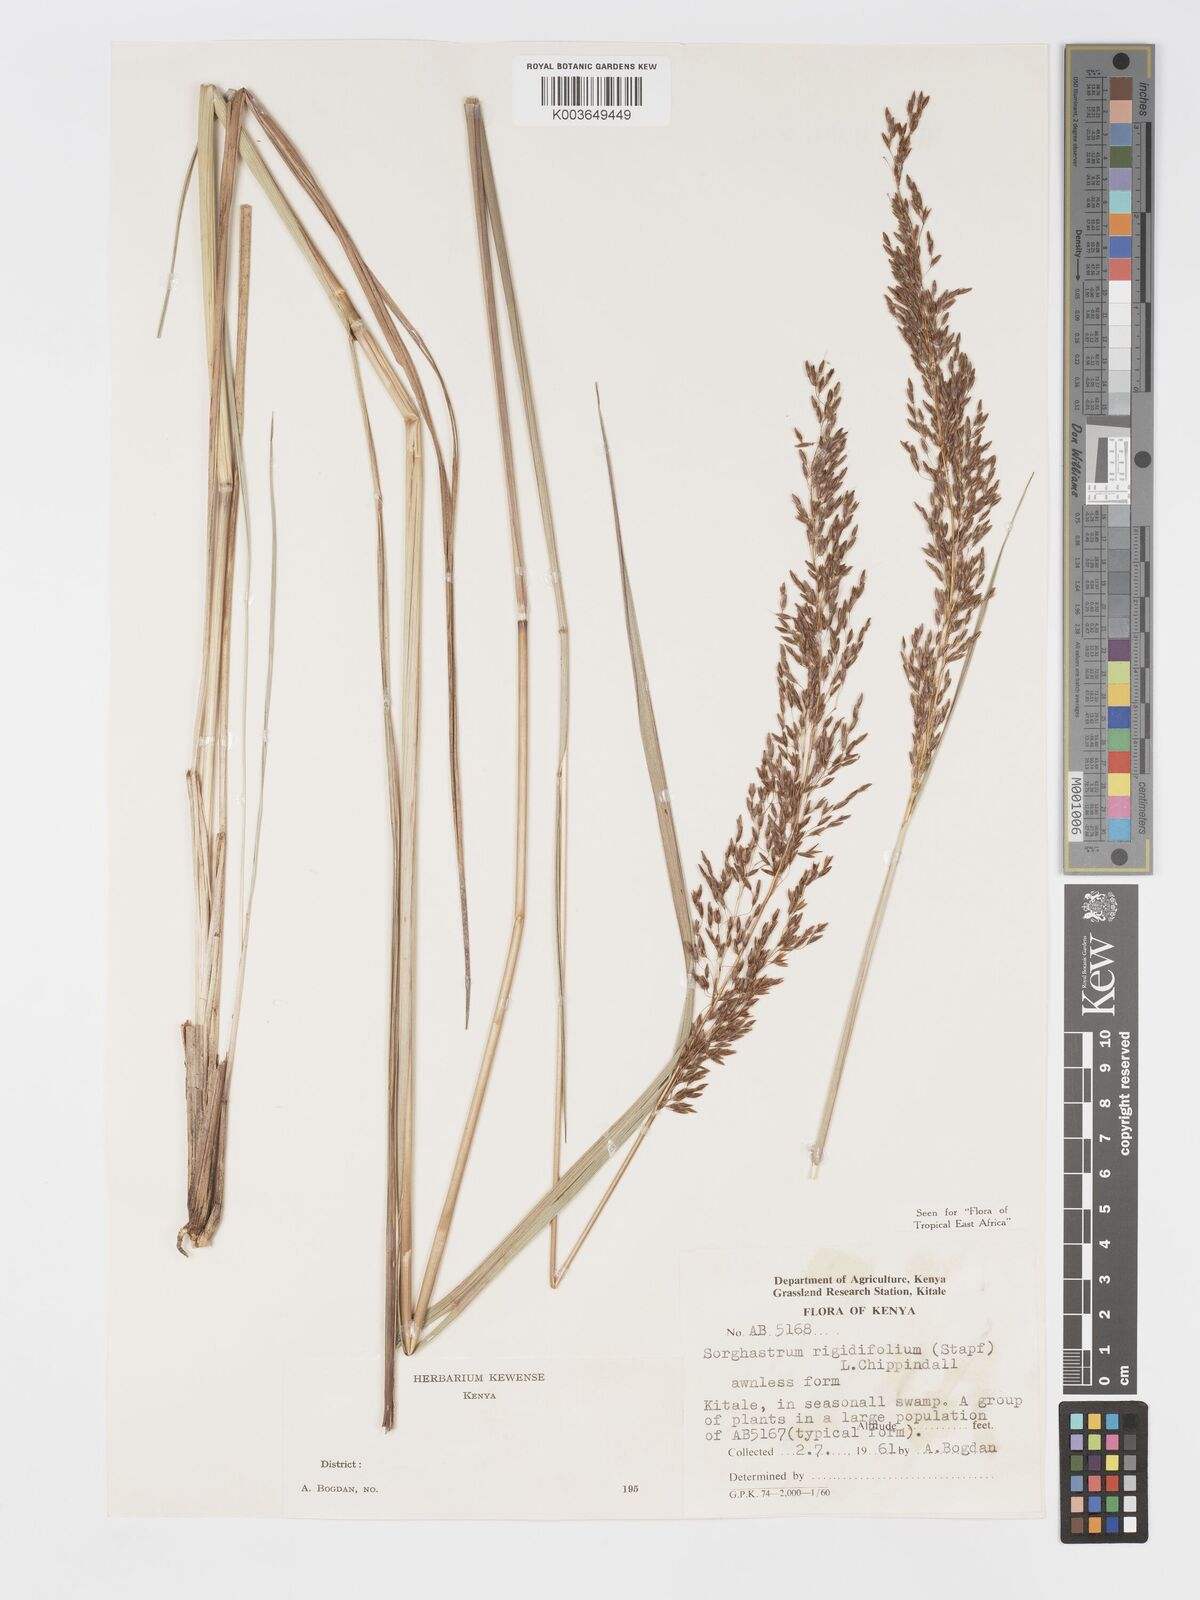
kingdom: Plantae
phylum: Tracheophyta
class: Liliopsida
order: Poales
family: Poaceae
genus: Sorghastrum
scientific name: Sorghastrum stipoides
